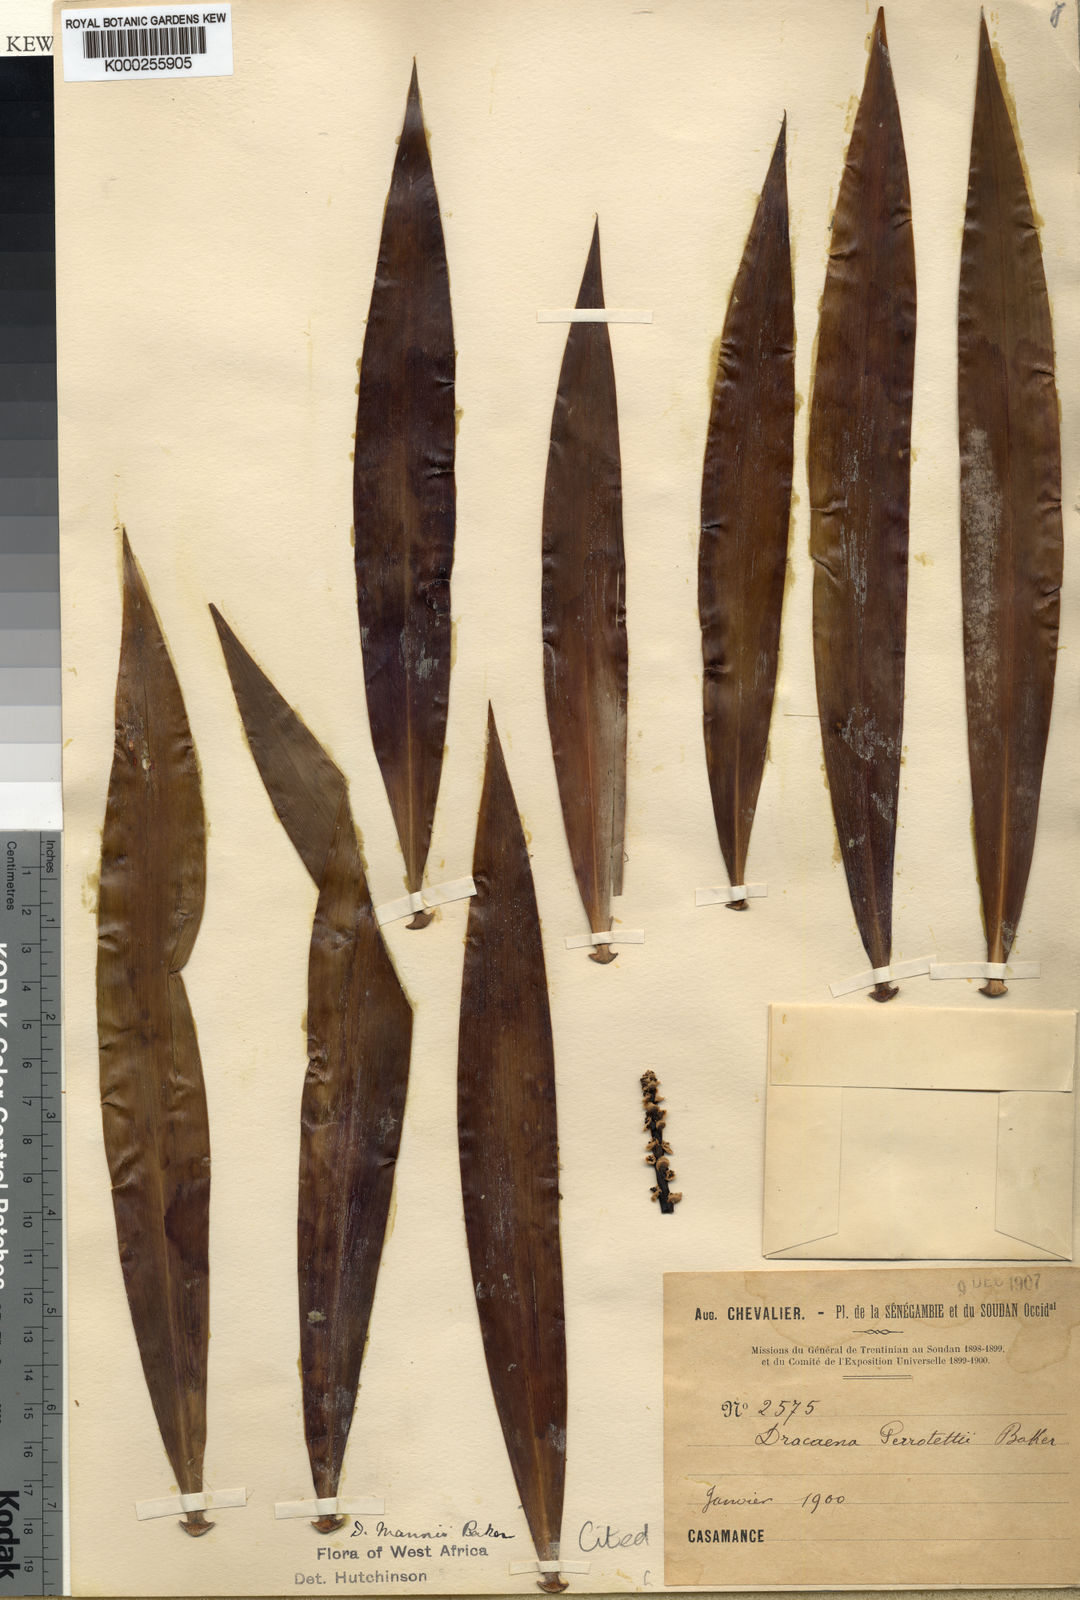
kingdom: Plantae
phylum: Tracheophyta
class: Liliopsida
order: Asparagales
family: Asparagaceae
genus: Dracaena
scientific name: Dracaena perrottetii
